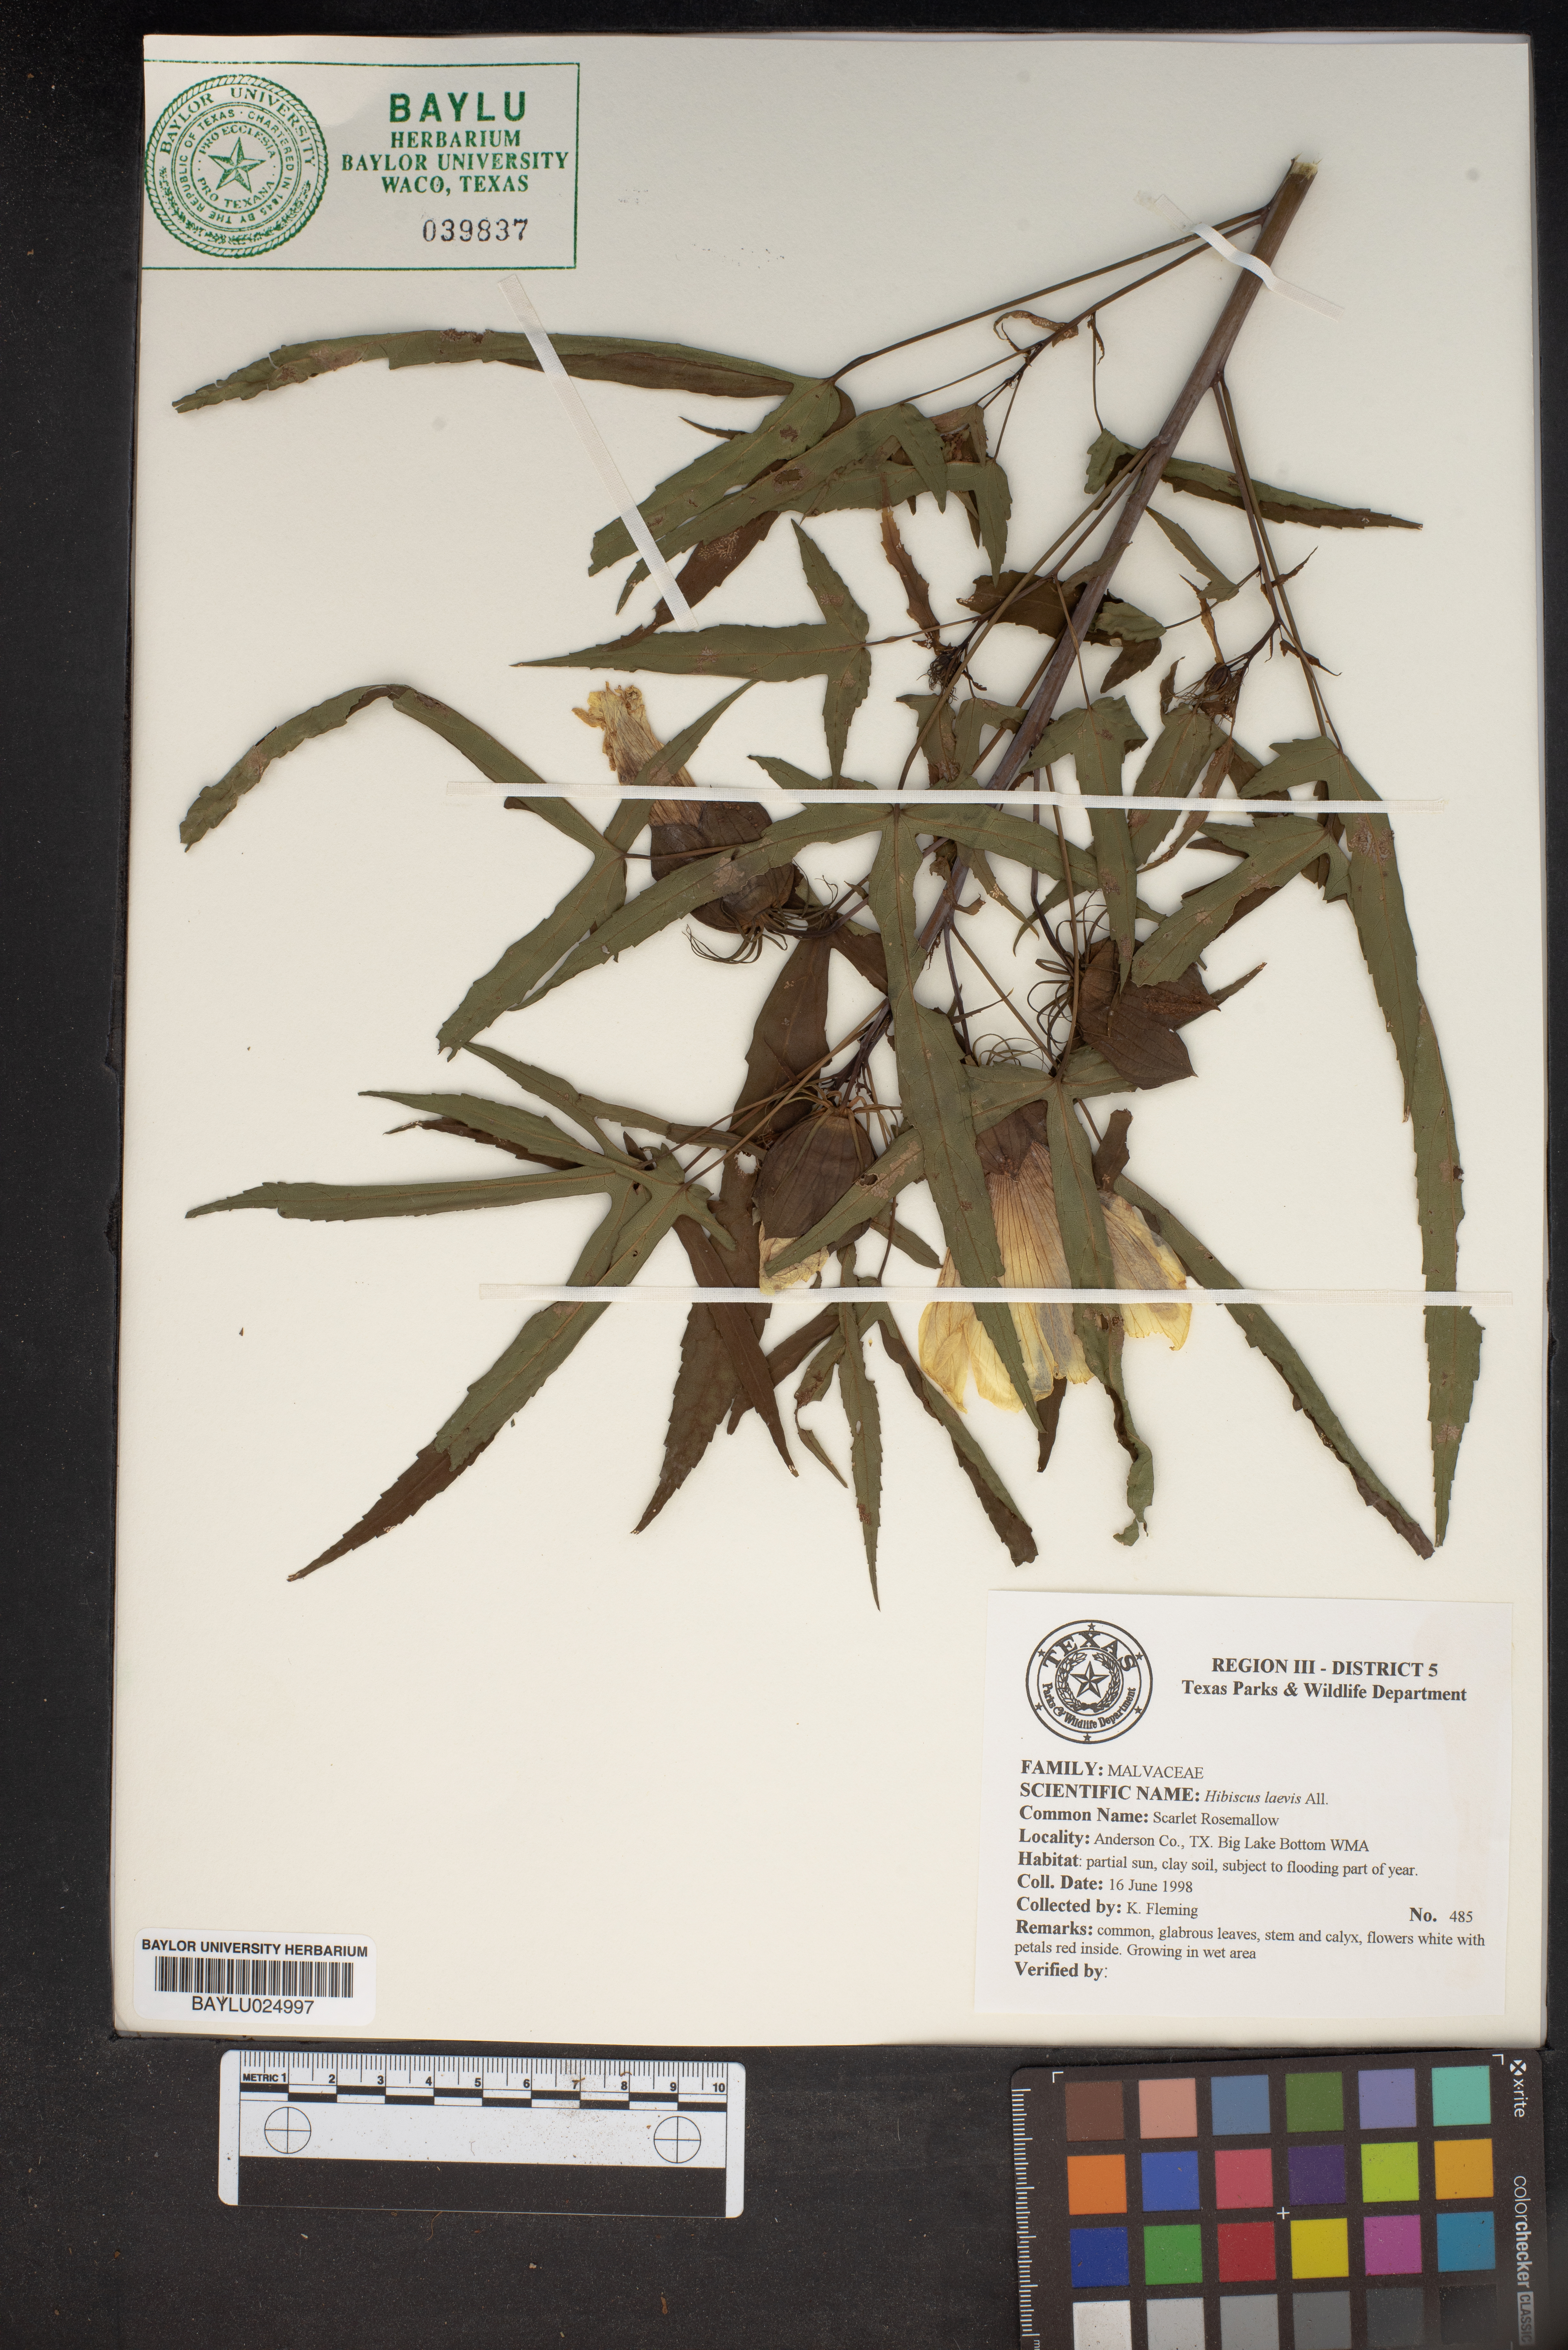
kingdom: Plantae
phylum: Tracheophyta
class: Magnoliopsida
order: Malvales
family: Malvaceae
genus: Hibiscus
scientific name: Hibiscus laevis
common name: Scarlet rose-mallow
